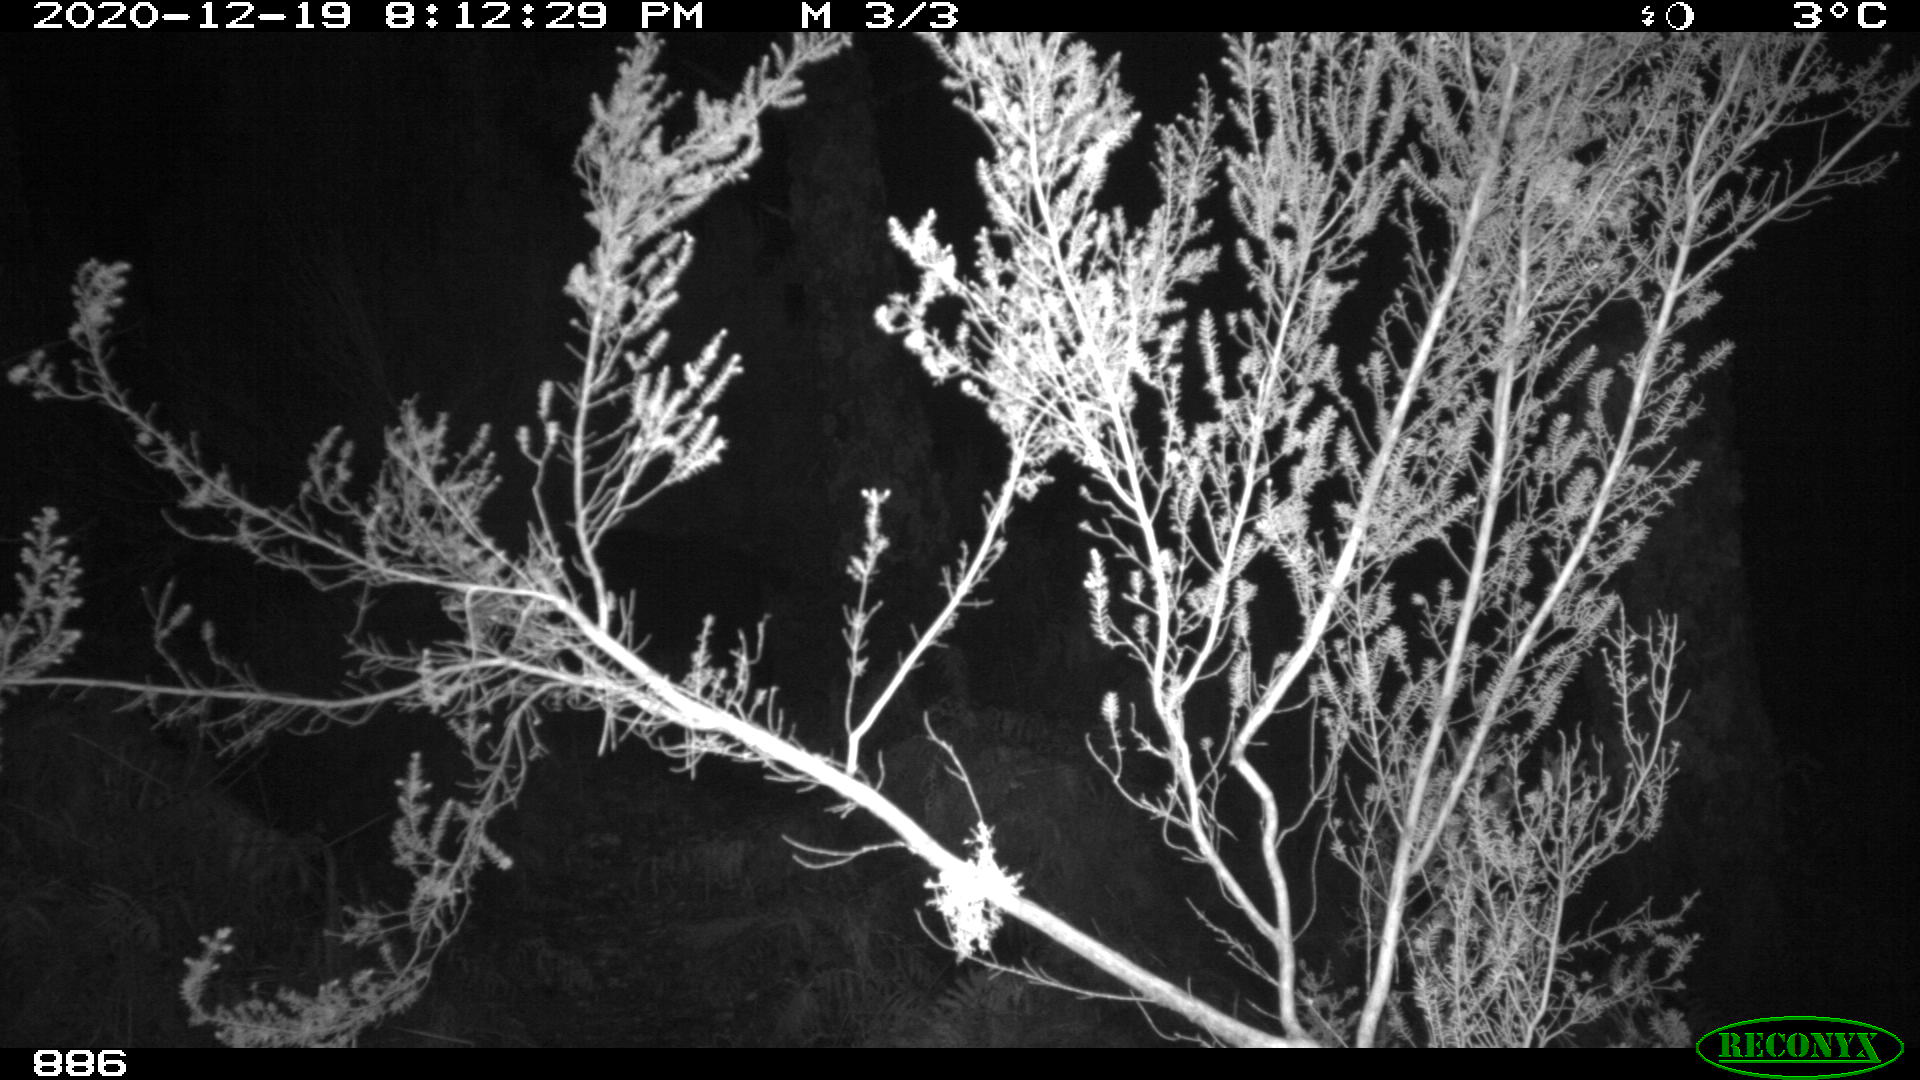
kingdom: Animalia
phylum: Chordata
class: Mammalia
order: Artiodactyla
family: Suidae
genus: Sus
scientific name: Sus scrofa
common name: Wild boar
